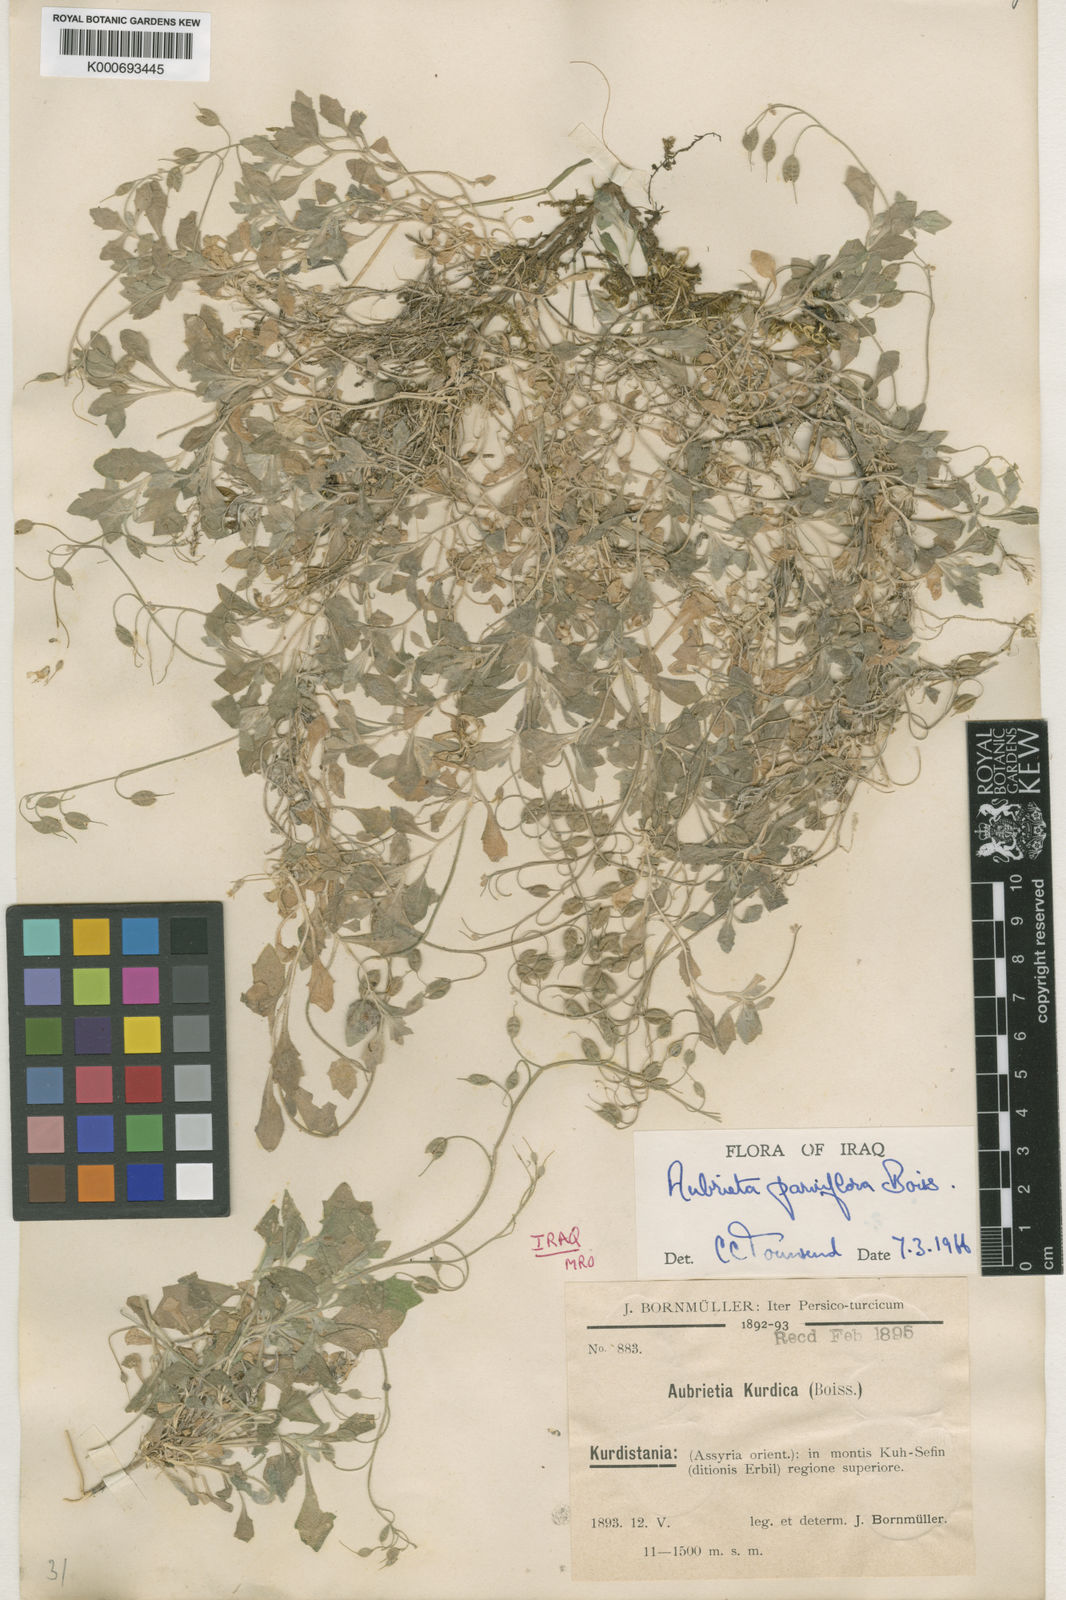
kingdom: Plantae
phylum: Tracheophyta
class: Magnoliopsida
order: Brassicales
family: Brassicaceae
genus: Aubrieta
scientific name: Aubrieta parviflora
